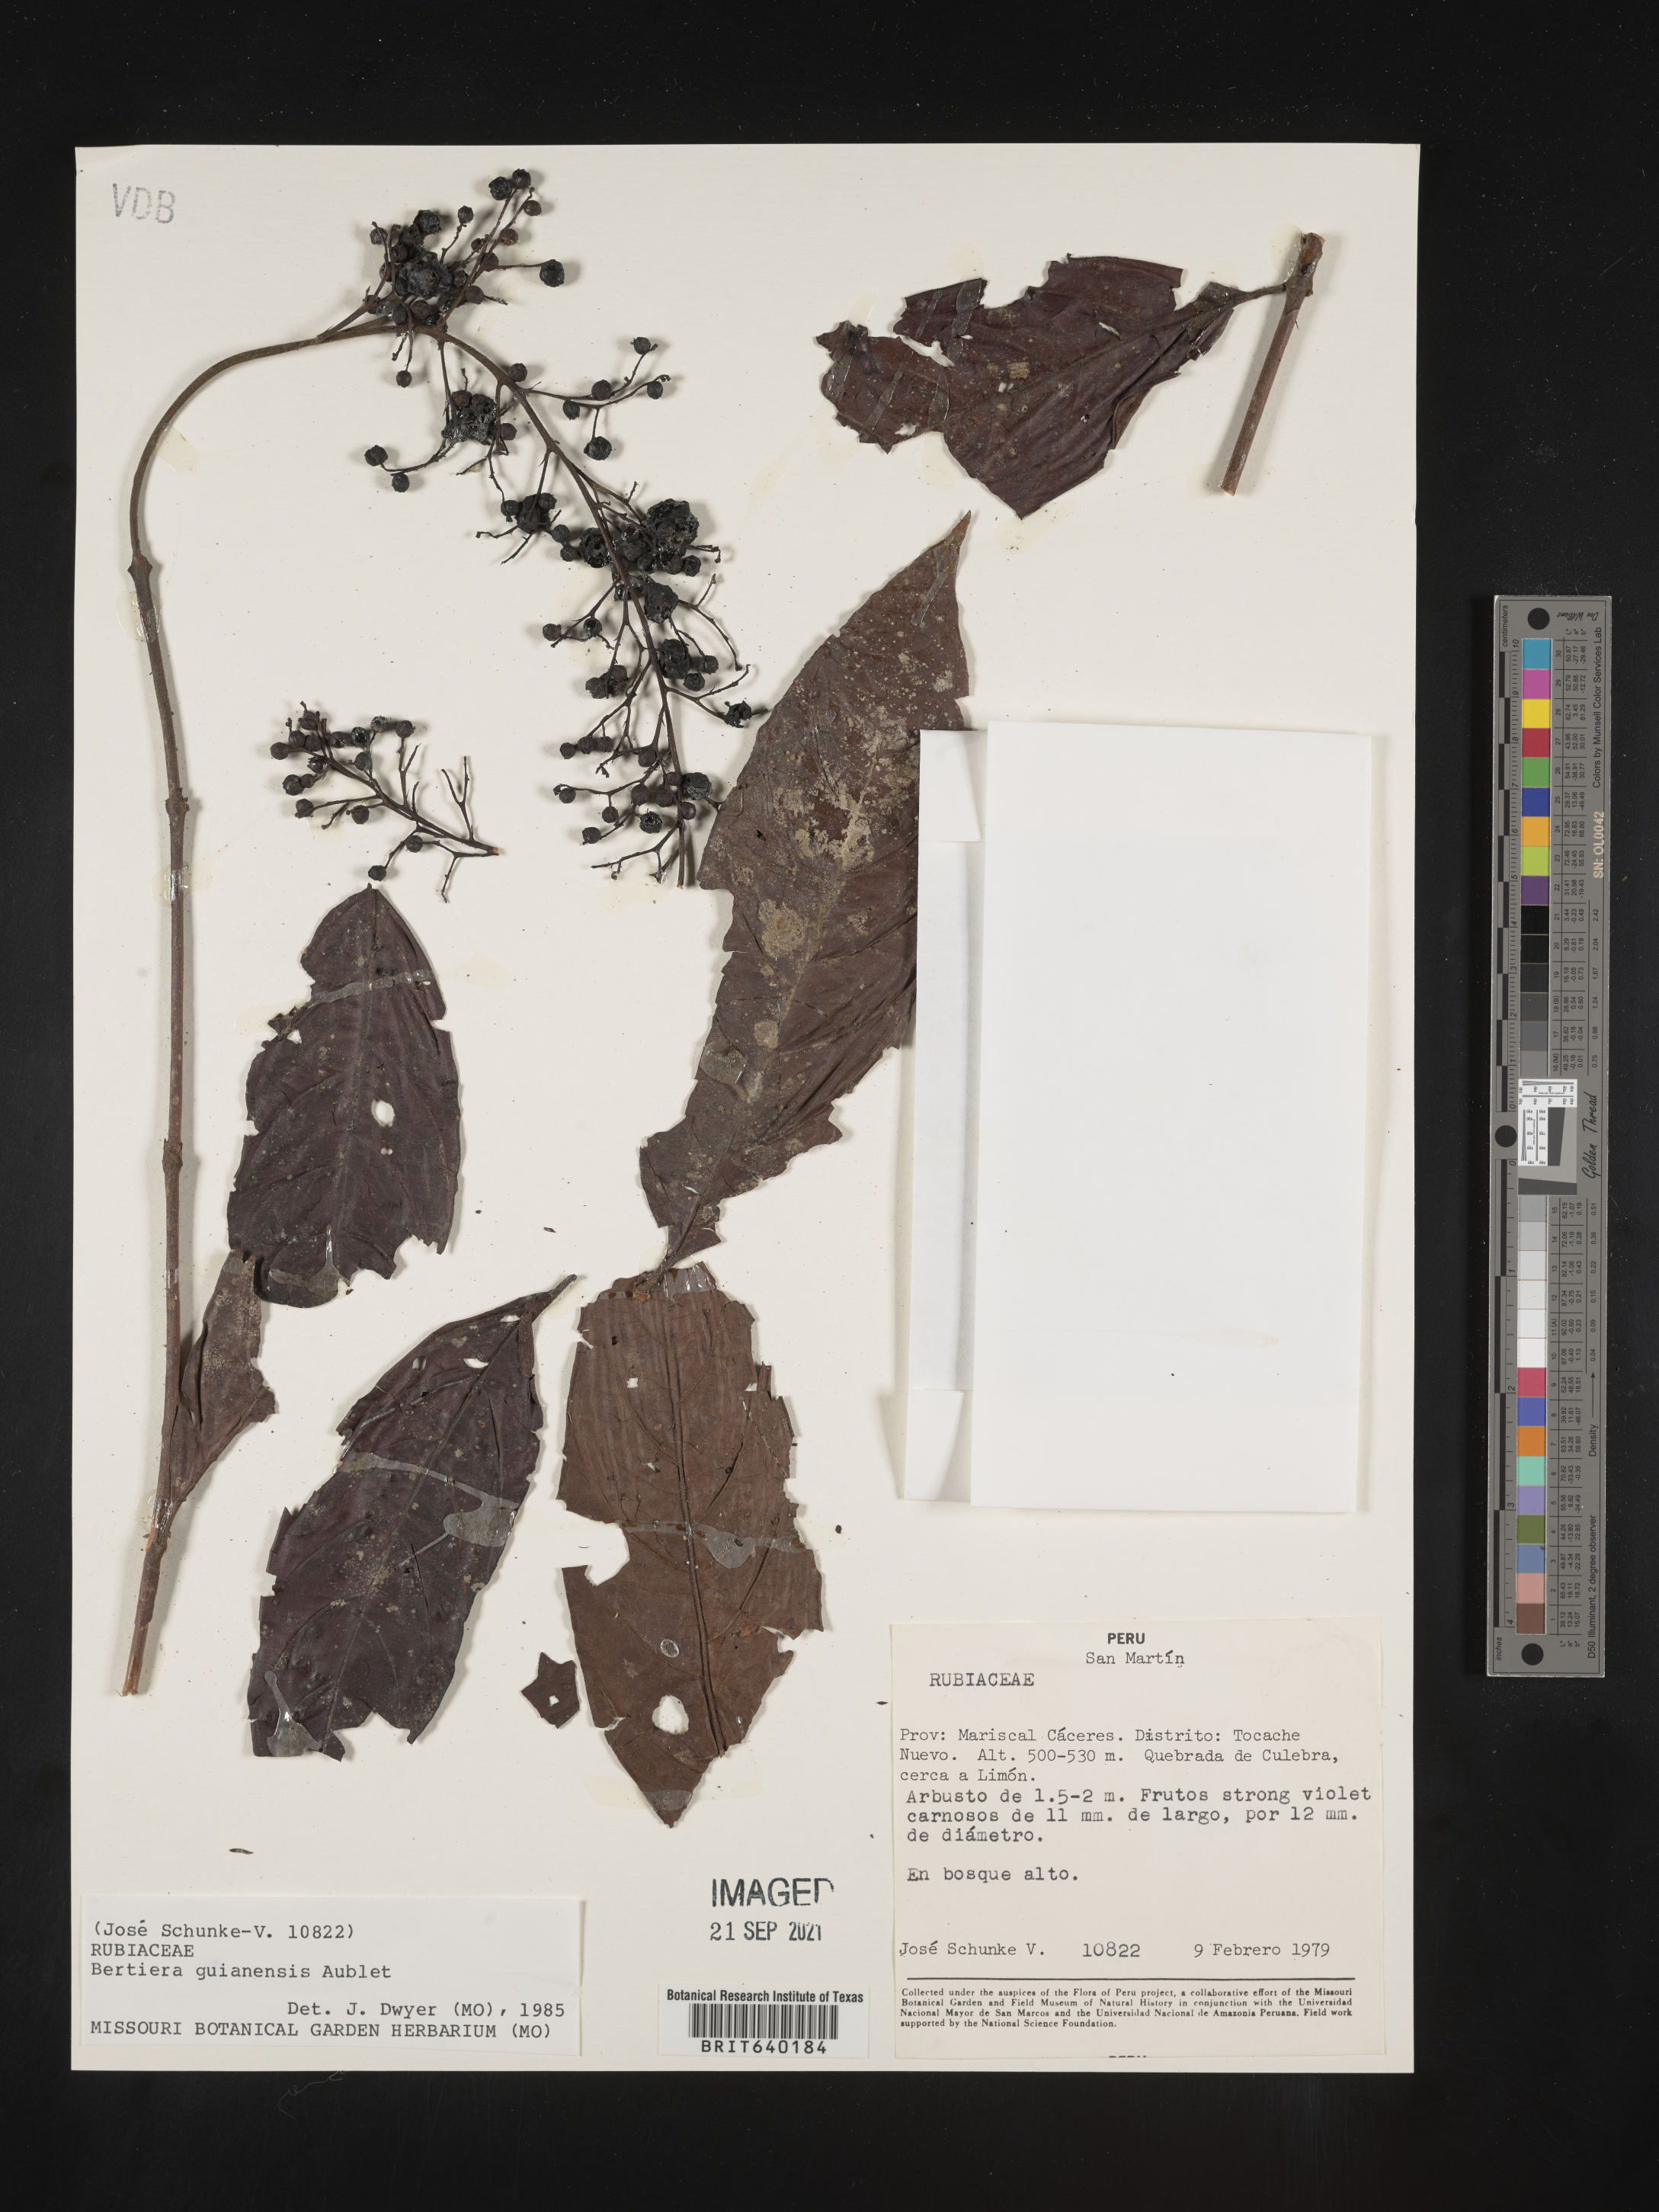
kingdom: Plantae
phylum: Tracheophyta
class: Magnoliopsida
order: Gentianales
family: Rubiaceae
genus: Bertiera
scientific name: Bertiera
